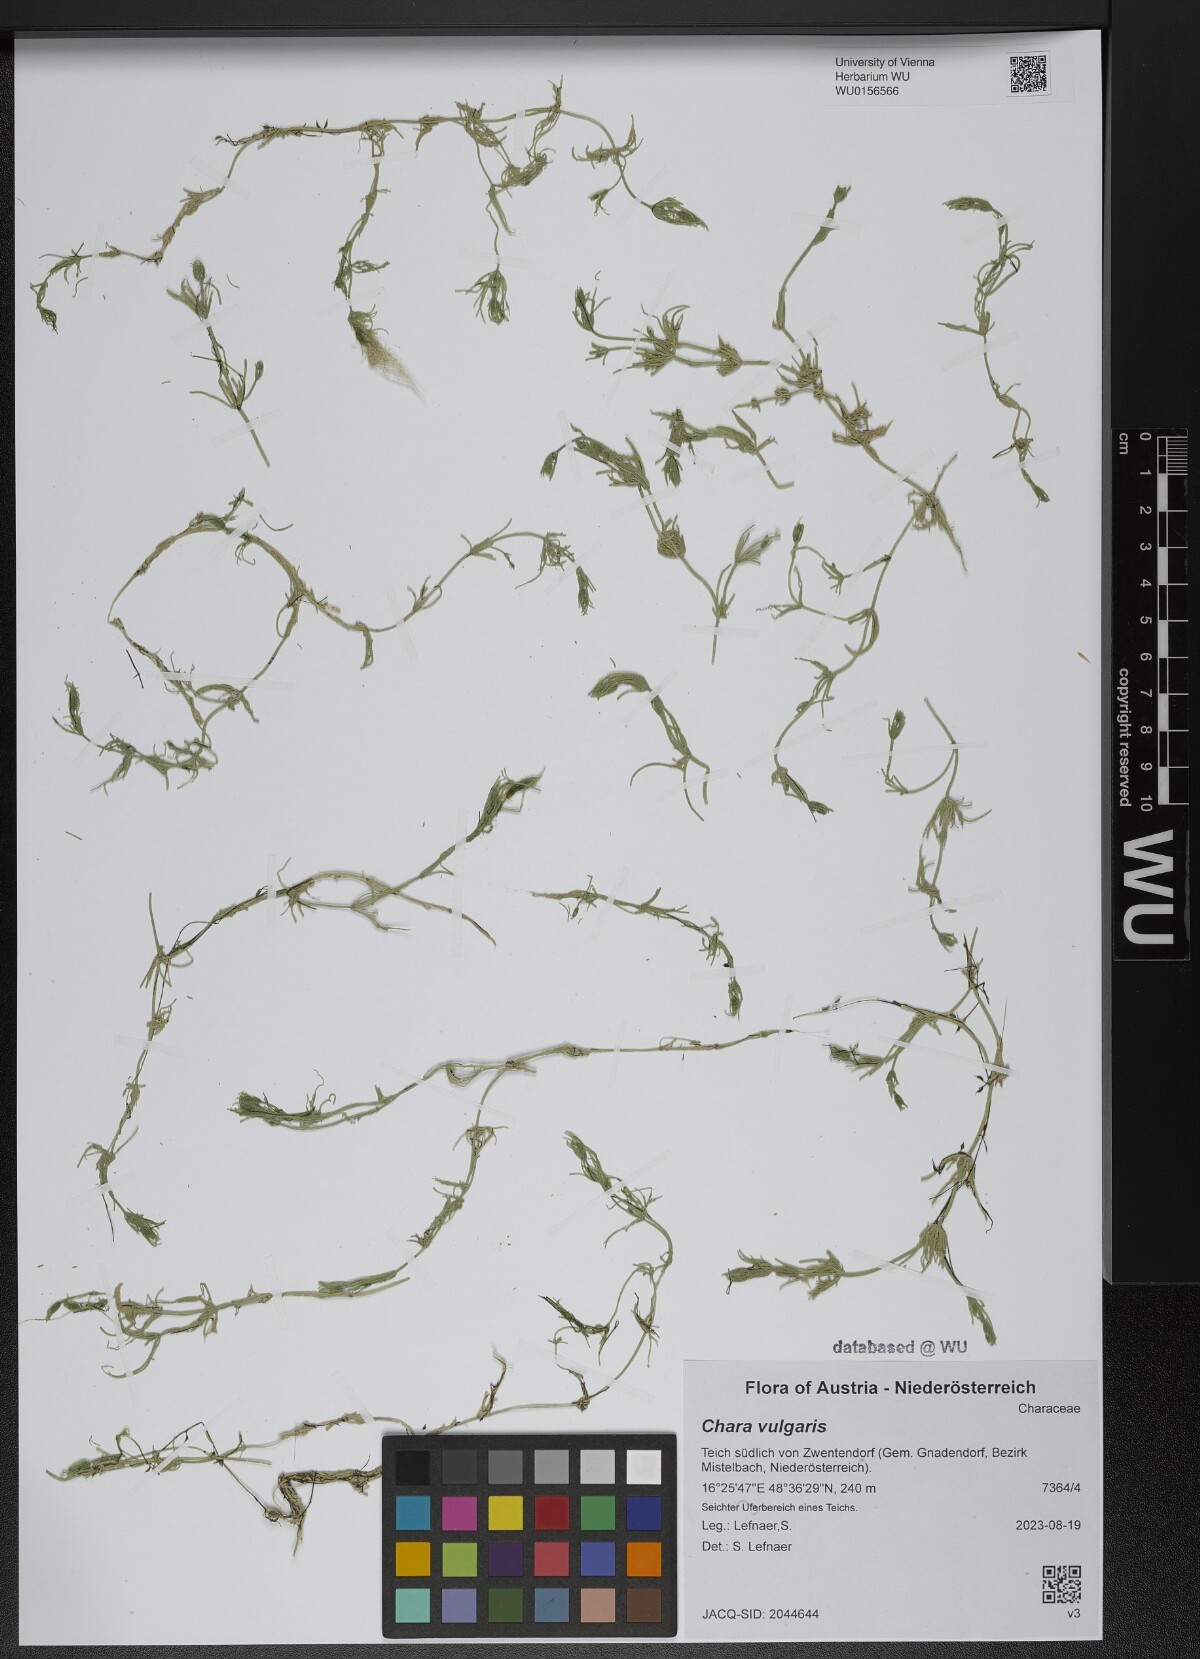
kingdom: Plantae
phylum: Charophyta
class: Charophyceae
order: Charales
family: Characeae
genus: Chara
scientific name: Chara vulgaris
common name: Common stonewort
